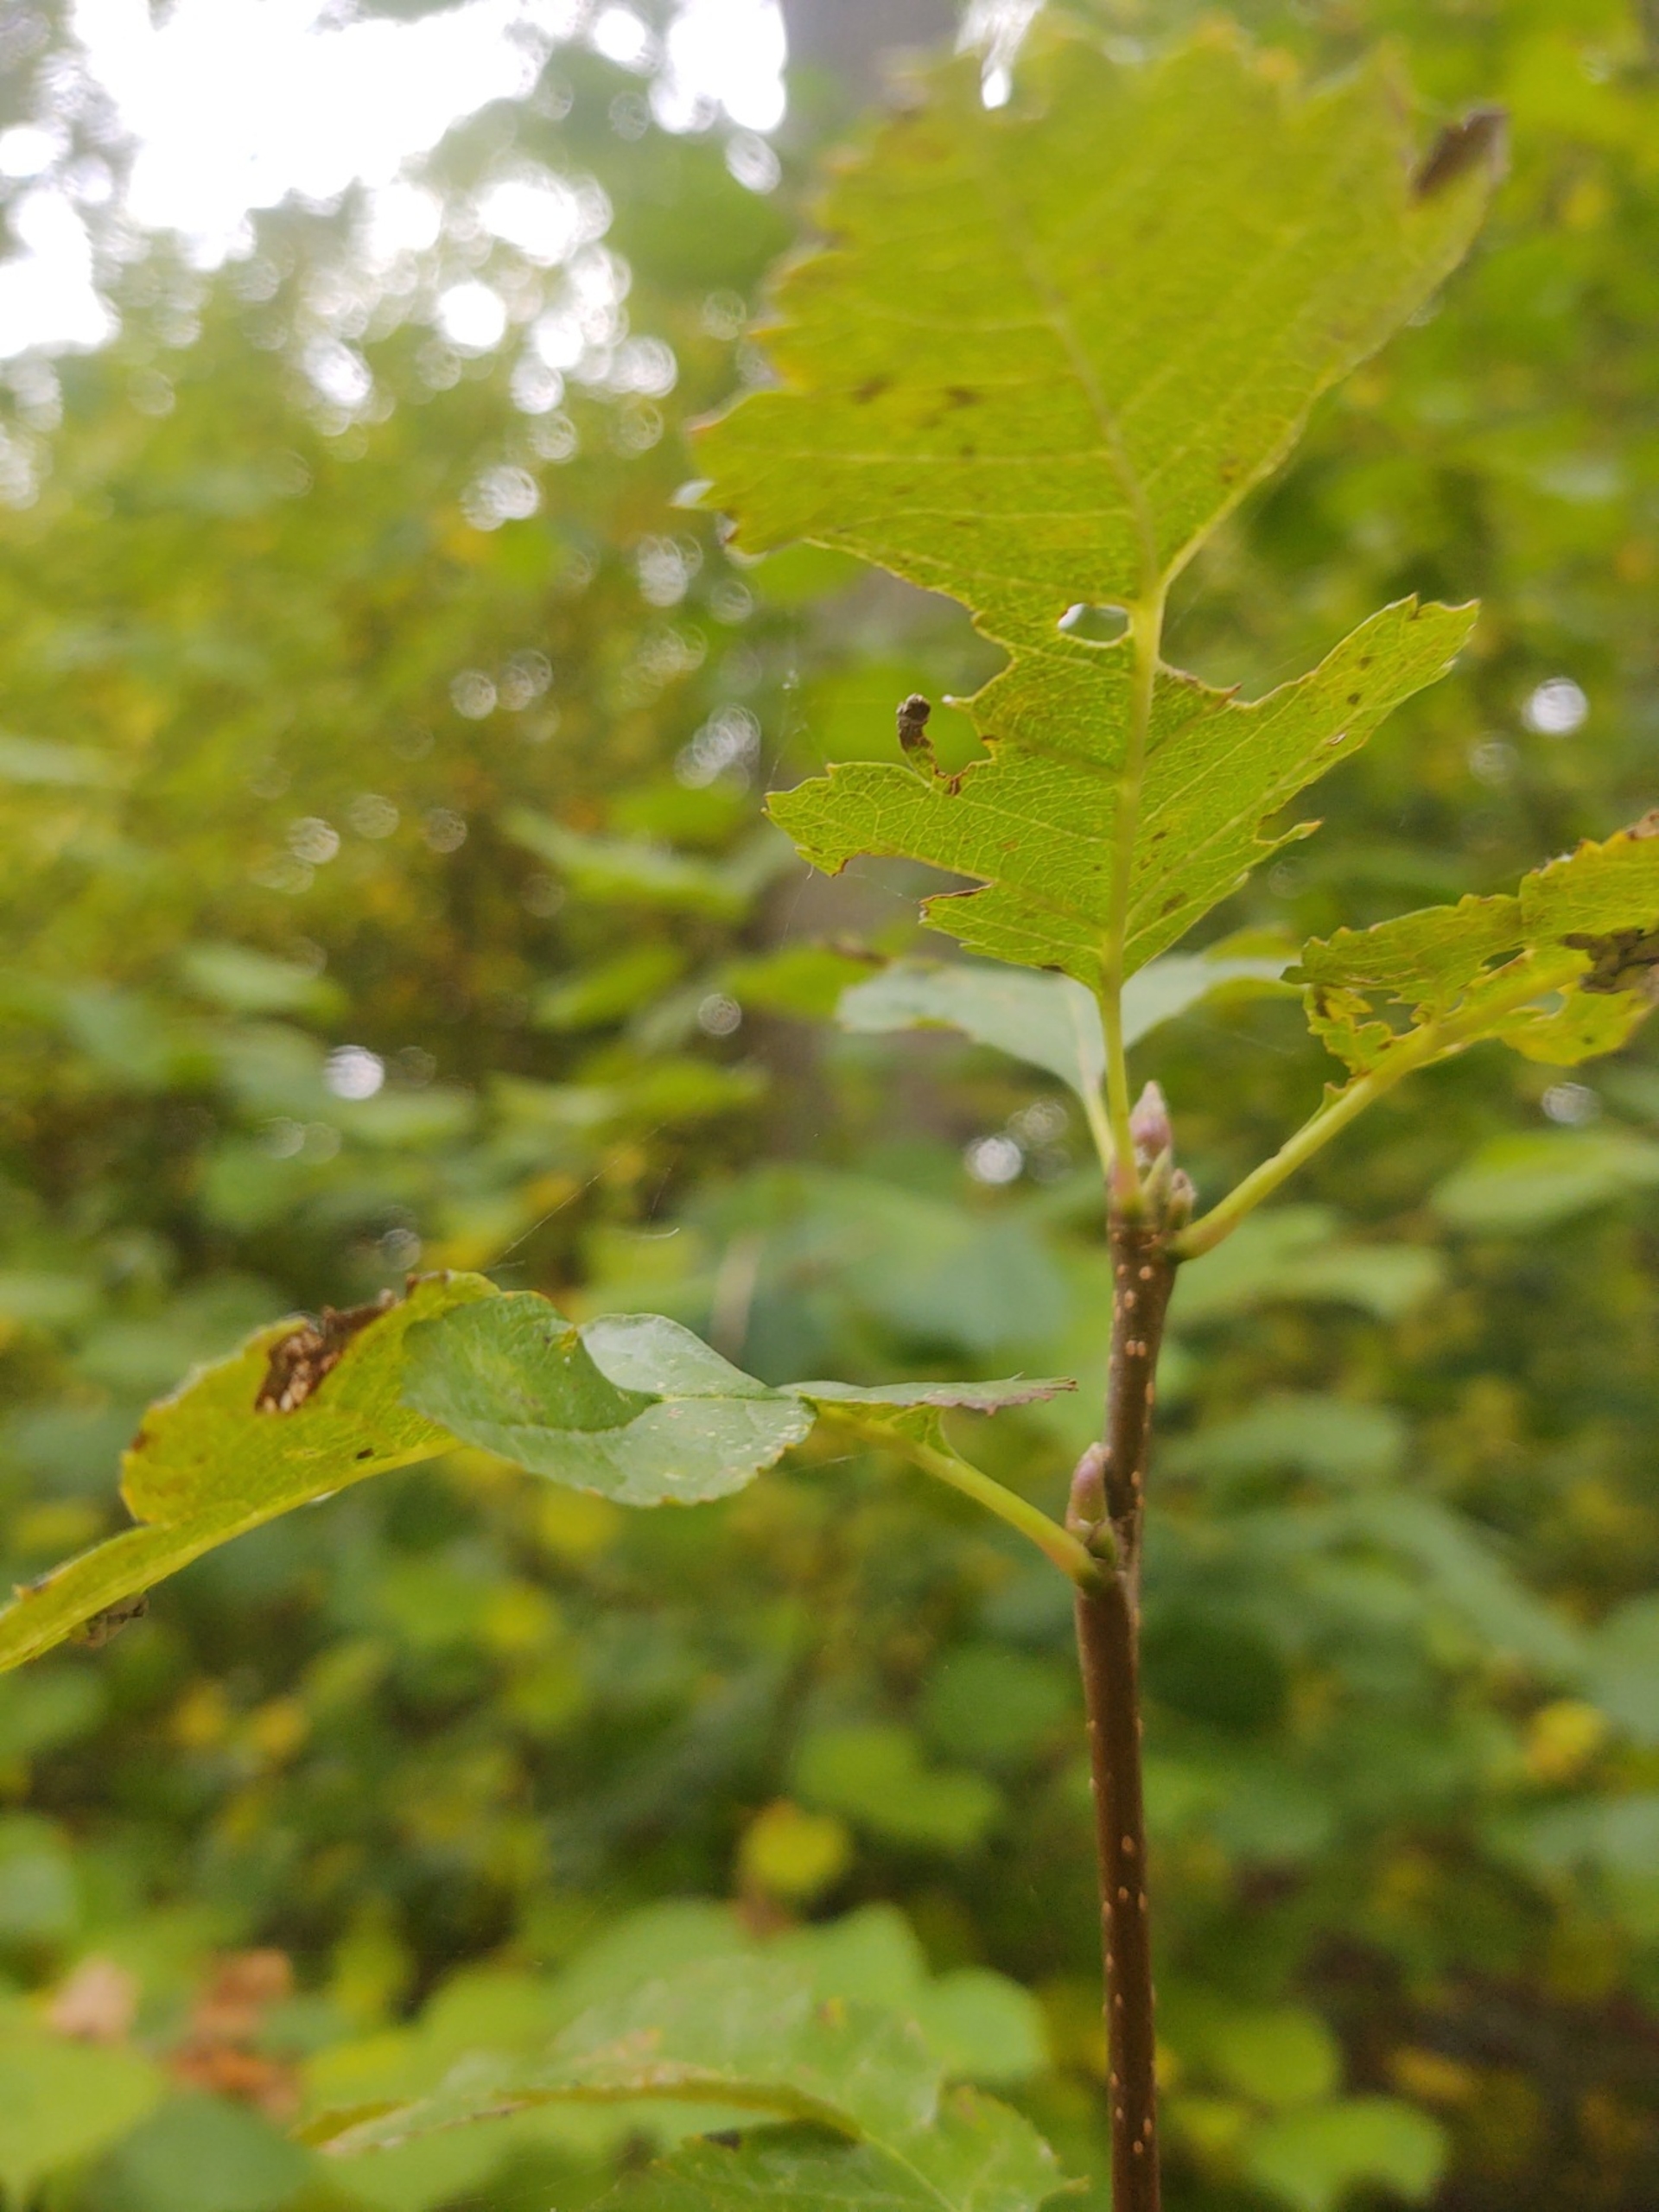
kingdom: Plantae
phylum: Tracheophyta
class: Magnoliopsida
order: Rosales
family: Rosaceae
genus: Scandosorbus
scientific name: Scandosorbus intermedia
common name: Selje-røn
